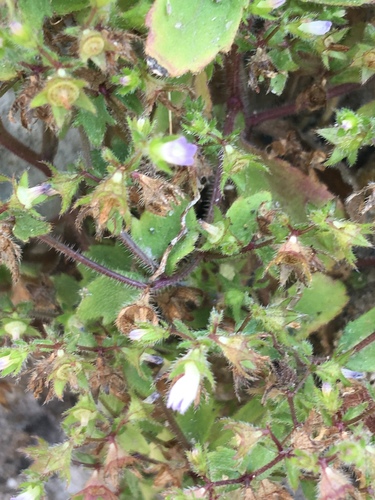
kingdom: Plantae
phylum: Tracheophyta
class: Magnoliopsida
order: Asterales
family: Campanulaceae
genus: Campanula
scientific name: Campanula erinus
